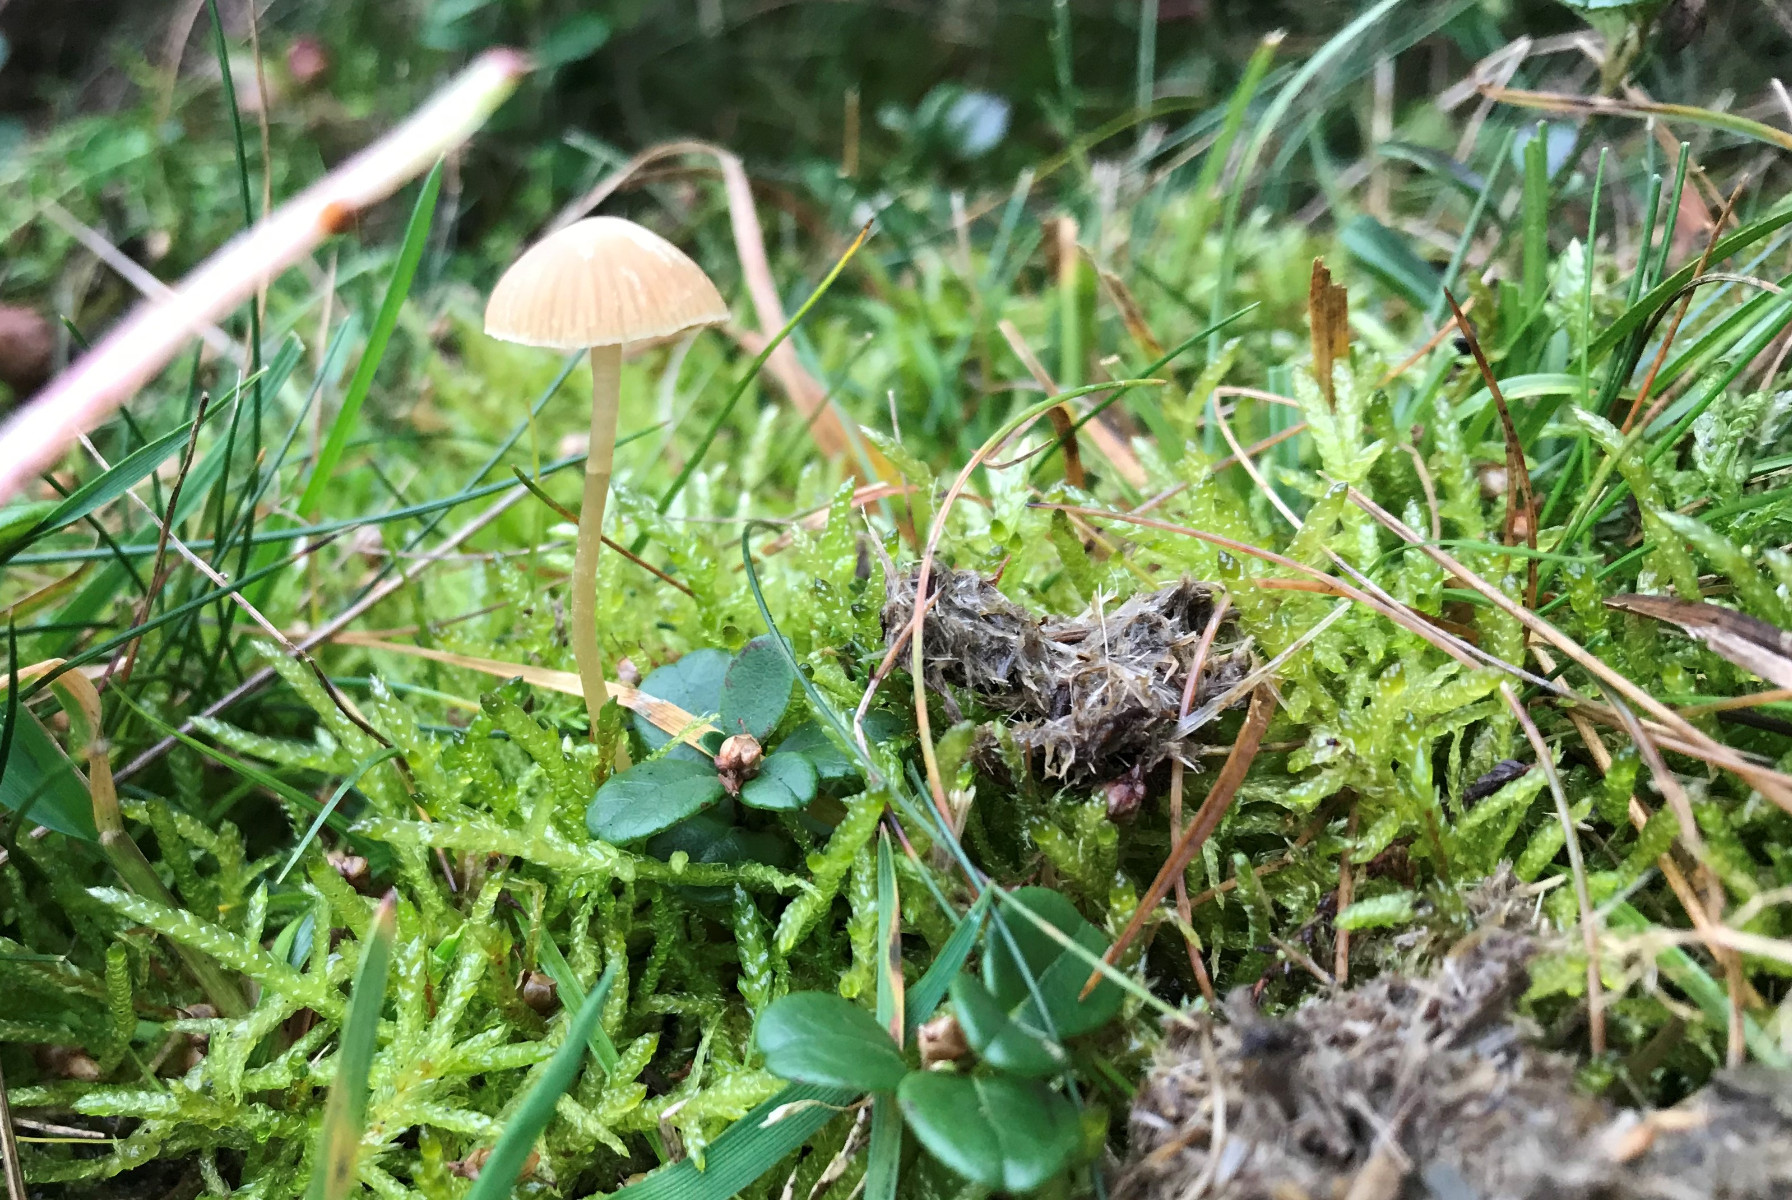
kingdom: Fungi
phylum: Basidiomycota
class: Agaricomycetes
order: Agaricales
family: Hymenogastraceae
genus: Galerina
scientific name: Galerina
